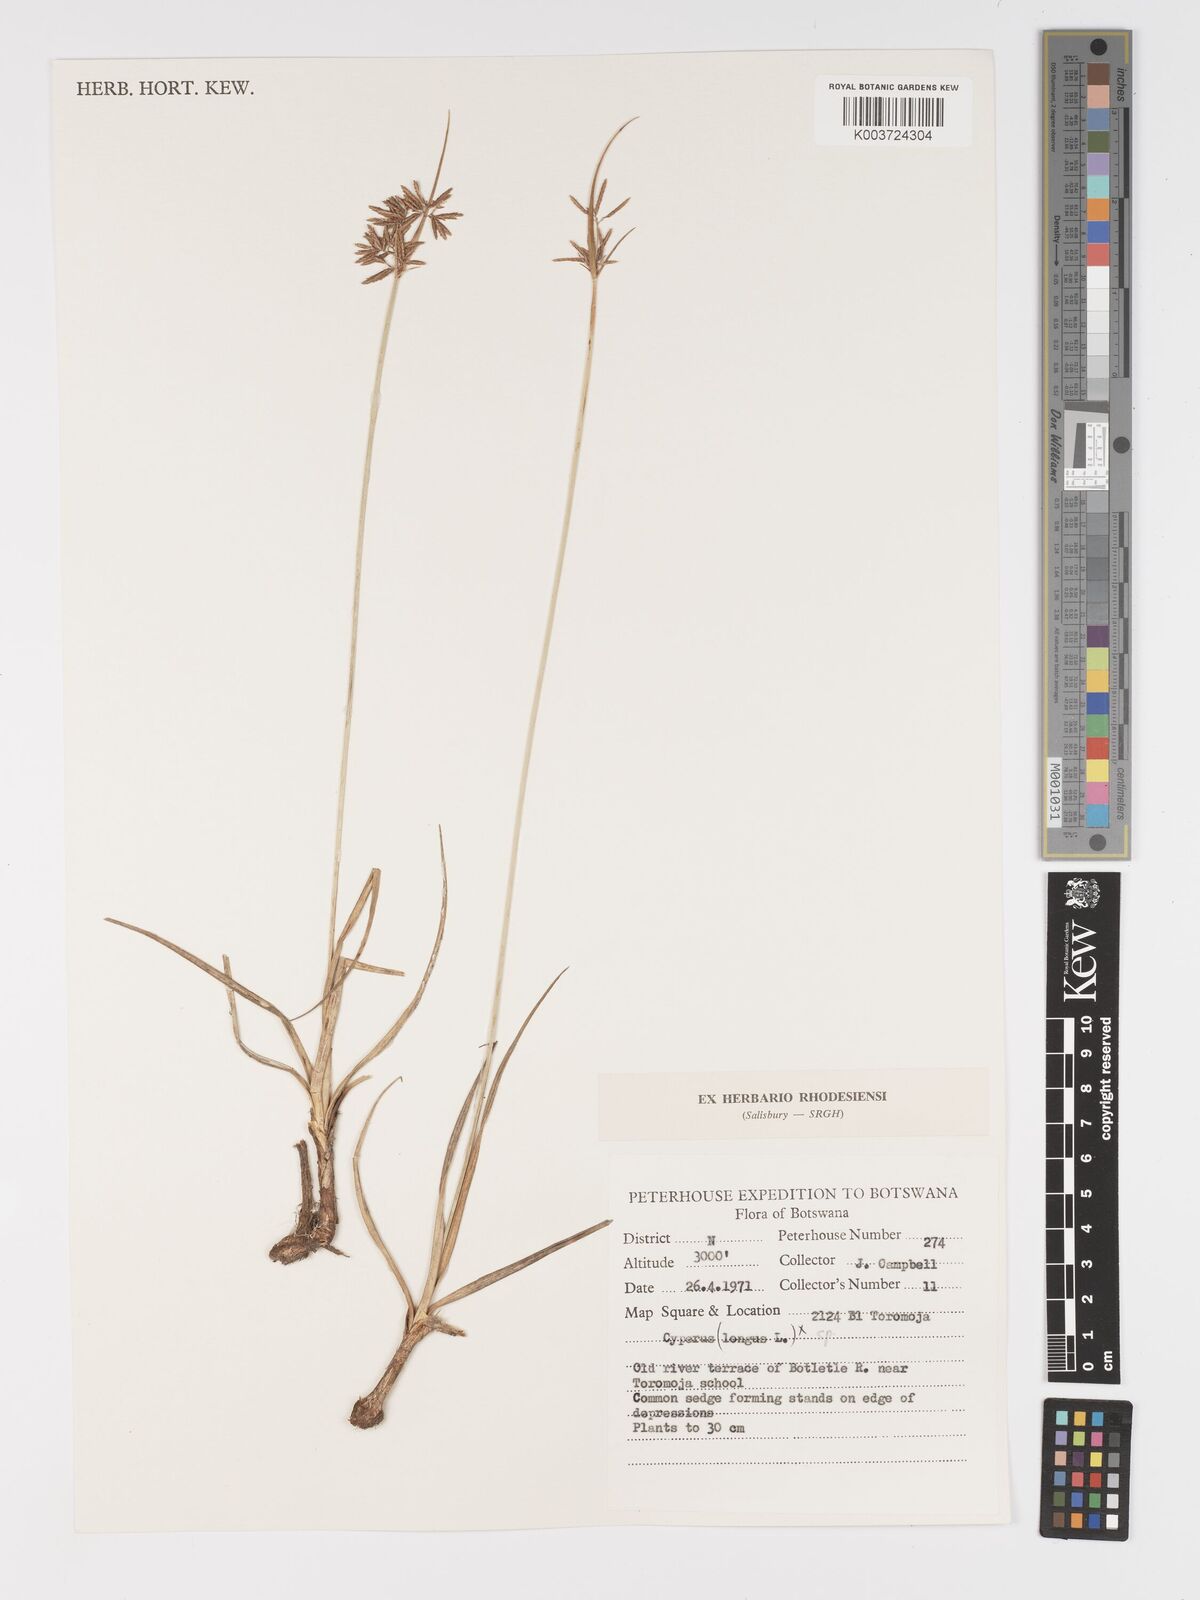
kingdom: Plantae
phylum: Tracheophyta
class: Liliopsida
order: Poales
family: Cyperaceae
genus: Cyperus
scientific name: Cyperus
